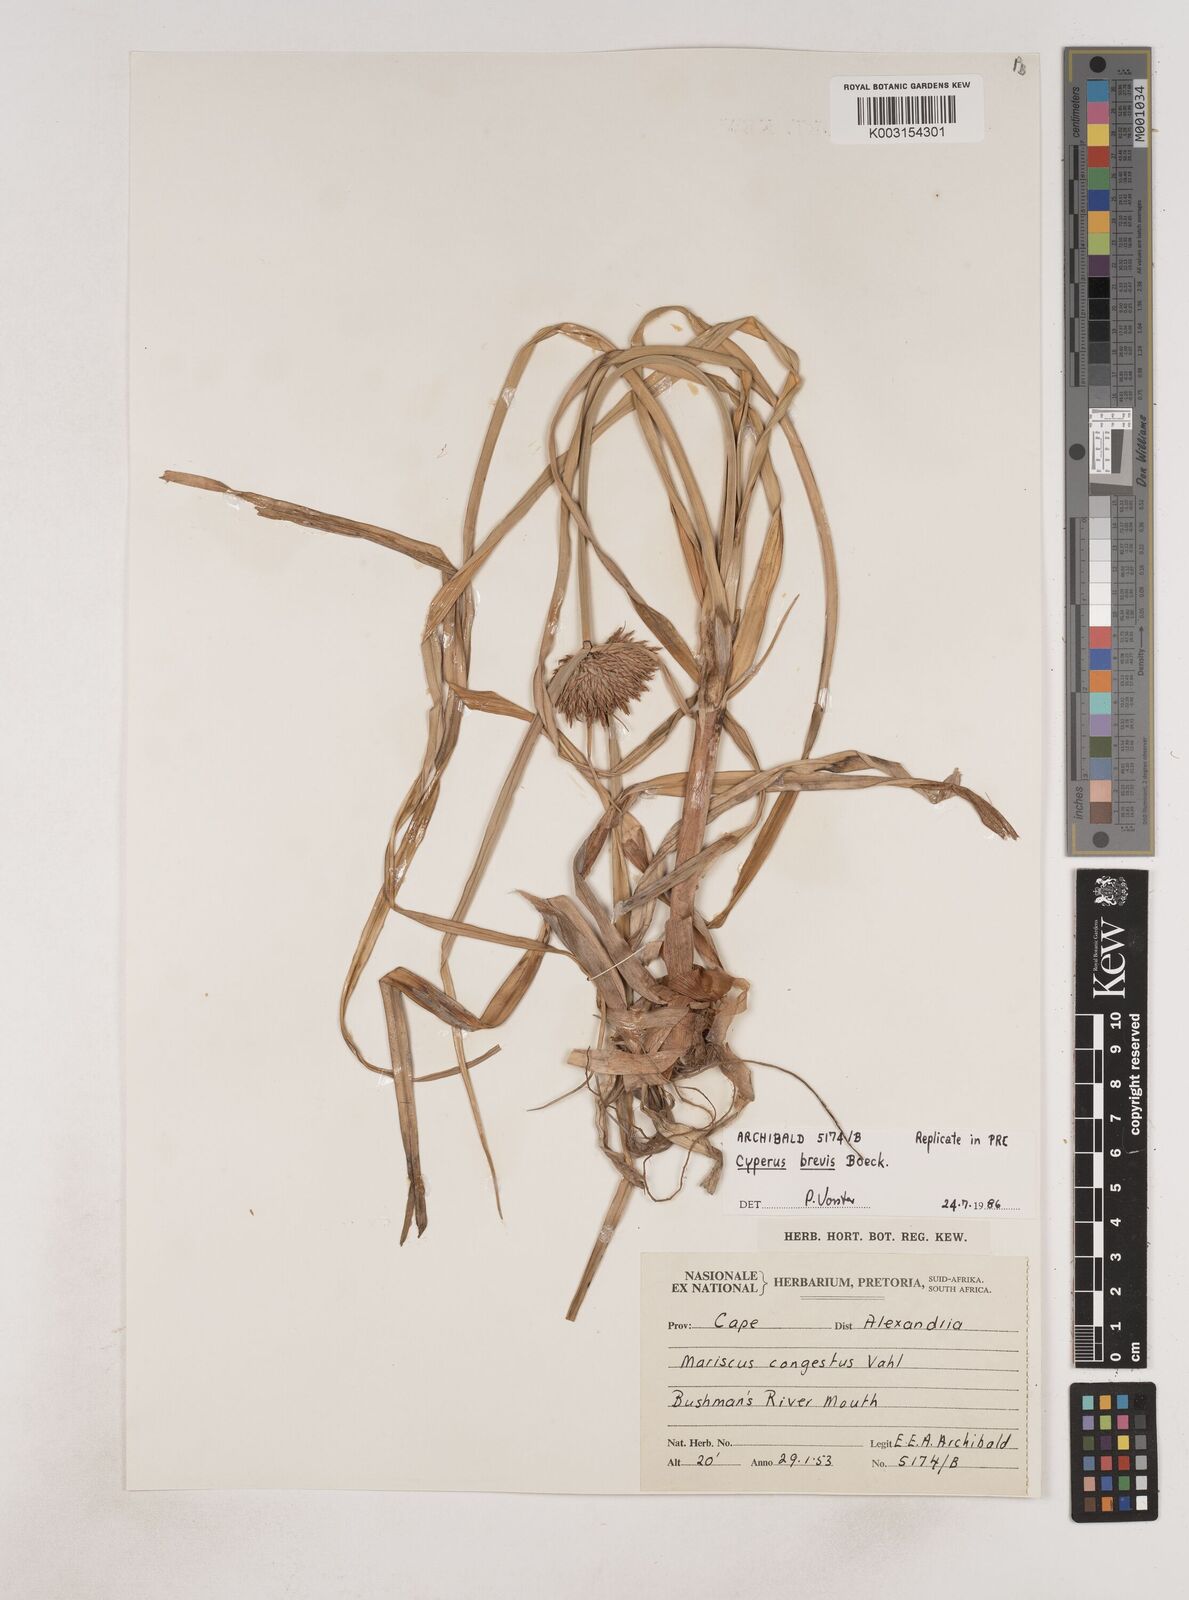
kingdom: Plantae
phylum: Tracheophyta
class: Liliopsida
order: Poales
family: Cyperaceae
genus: Cyperus
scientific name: Cyperus congestus
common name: Dense flat sedge
